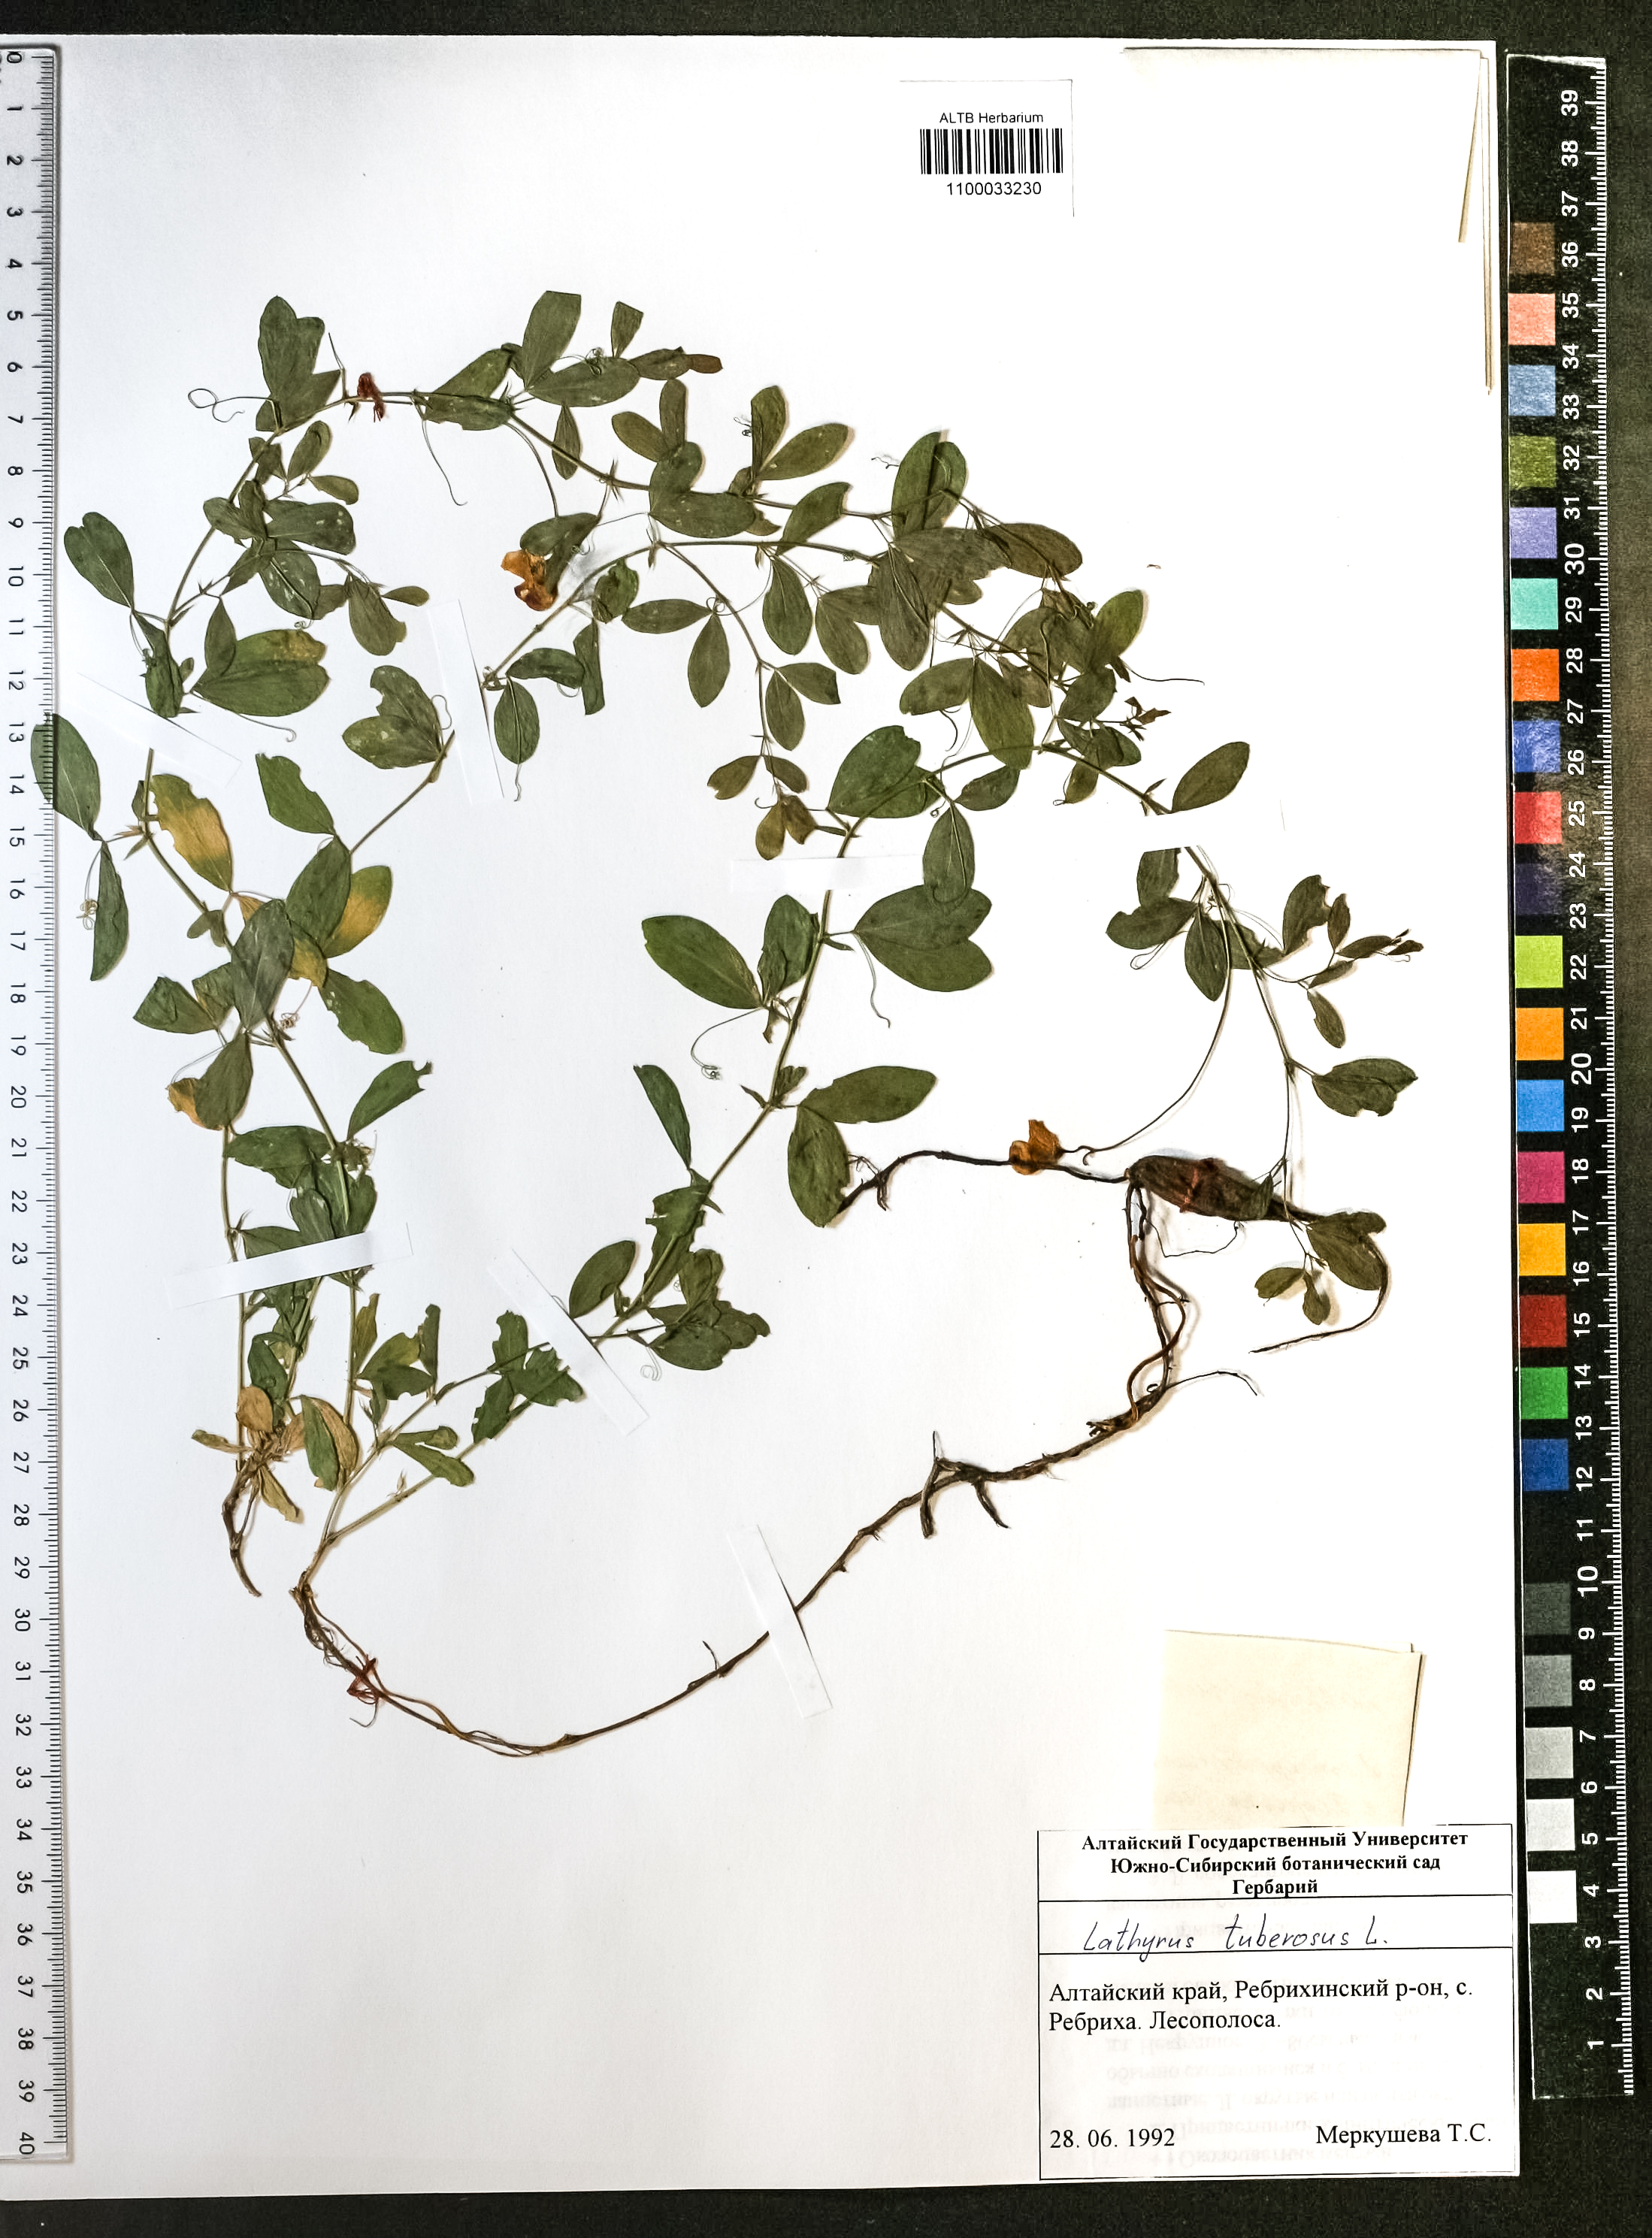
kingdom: Plantae
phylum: Tracheophyta
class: Magnoliopsida
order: Fabales
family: Fabaceae
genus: Lathyrus
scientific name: Lathyrus tuberosus
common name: Tuberous pea
